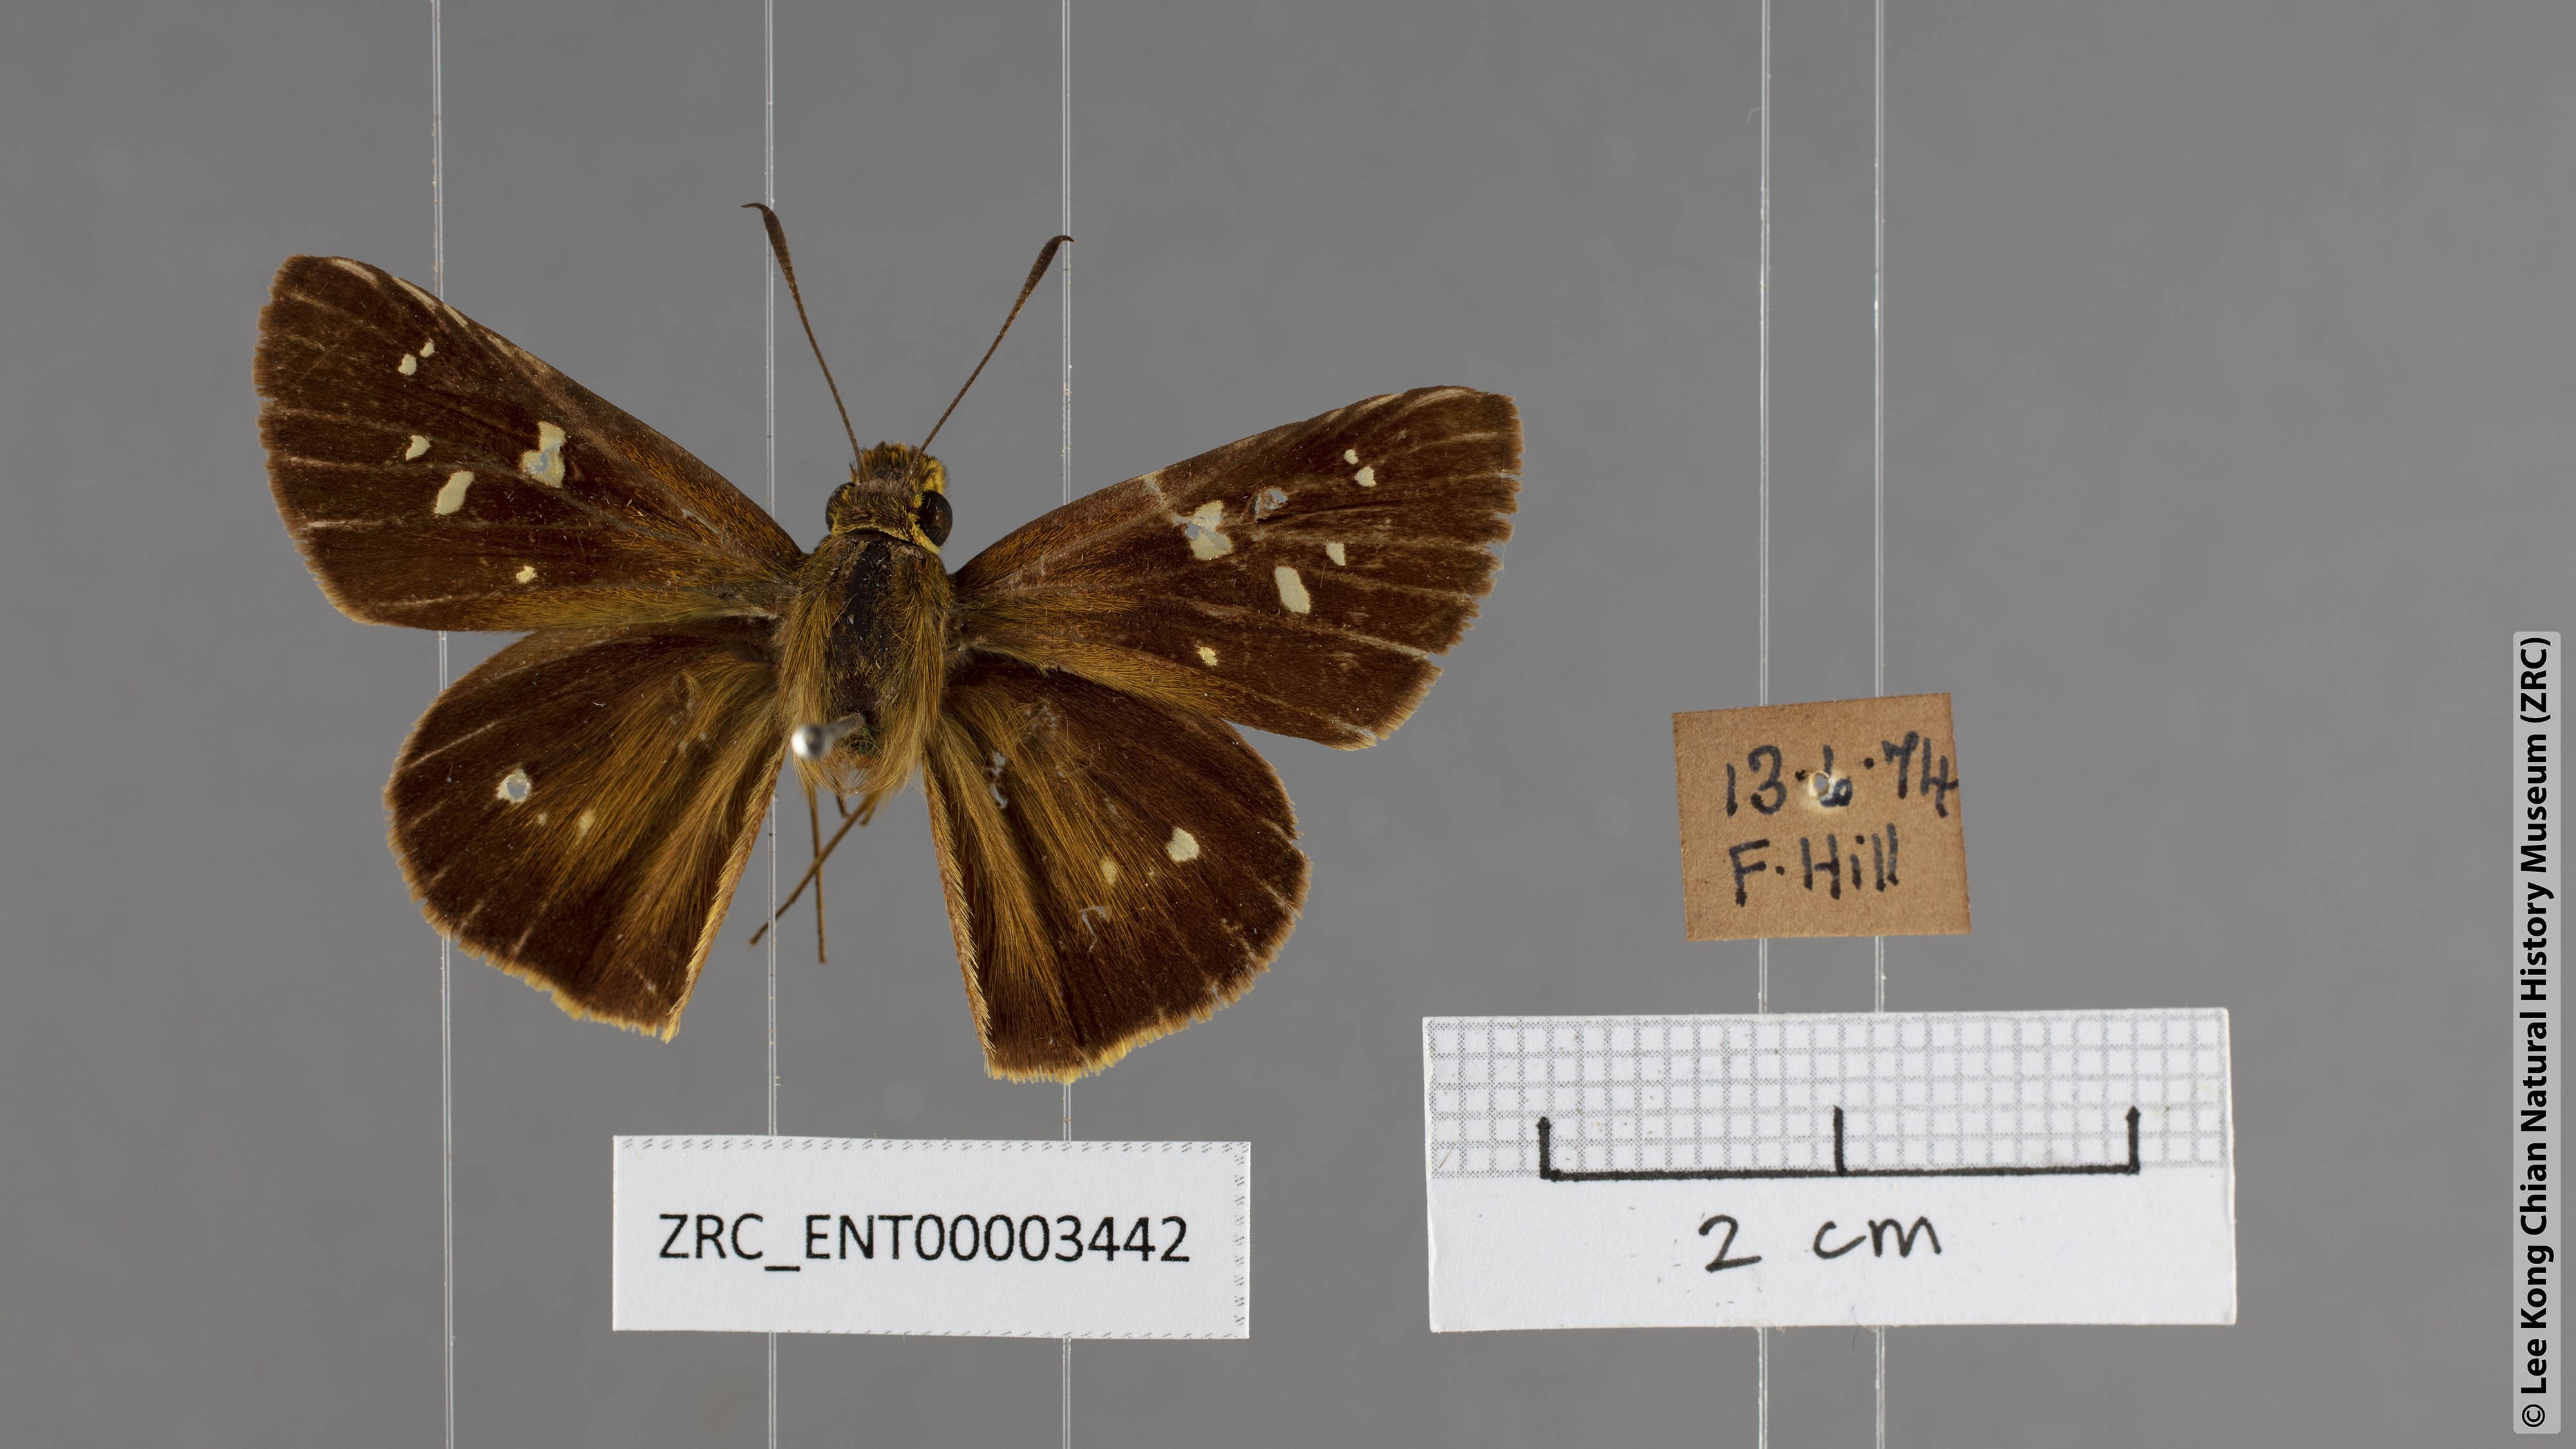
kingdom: Animalia
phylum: Arthropoda
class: Insecta
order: Lepidoptera
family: Hesperiidae
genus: Polytremis
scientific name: Polytremis eltola
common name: Yellow-spot swift
